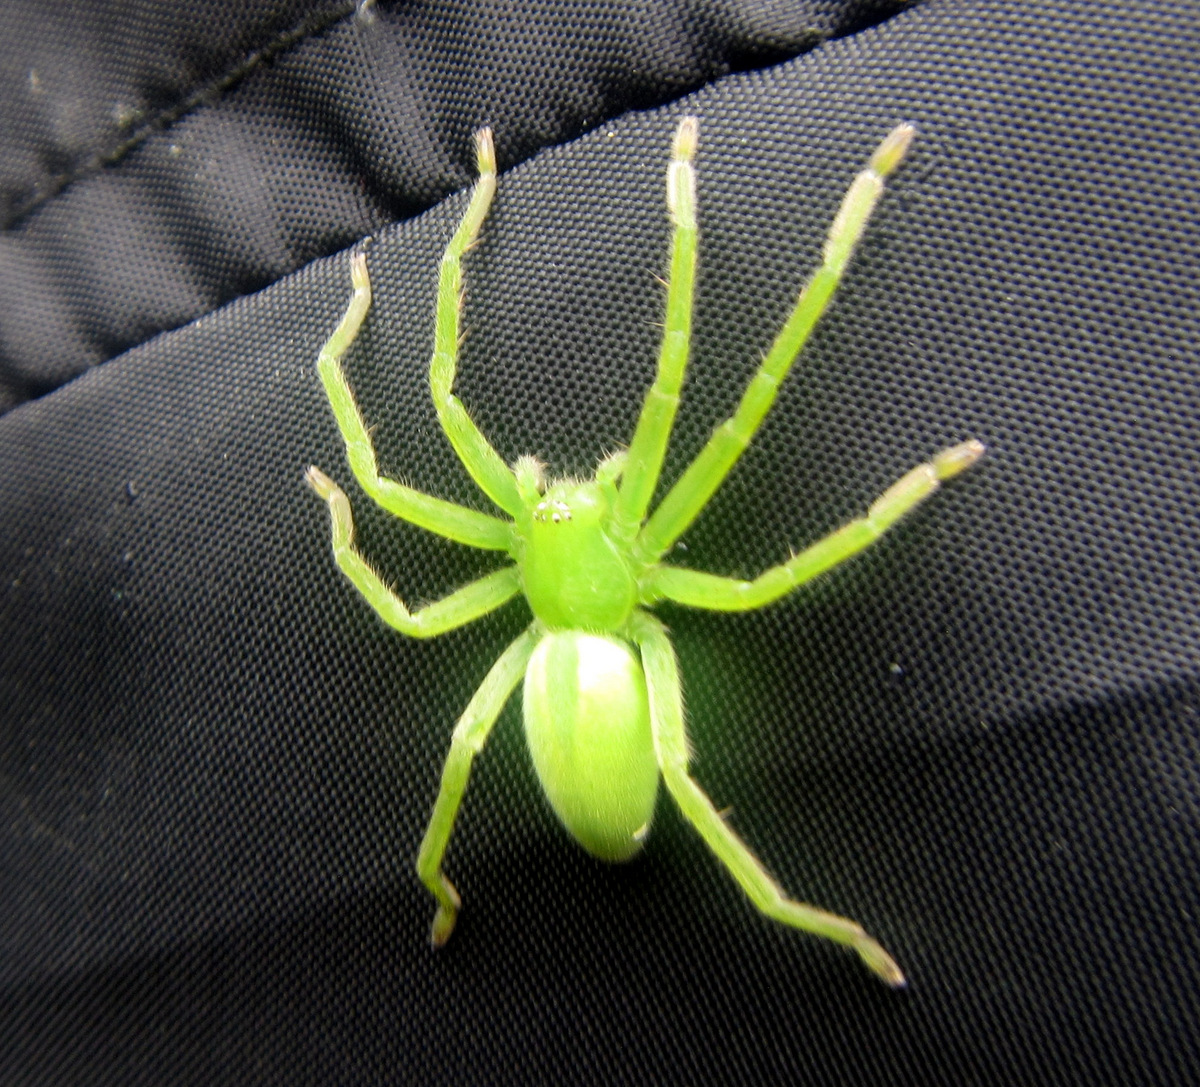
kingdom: Animalia
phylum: Arthropoda
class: Arachnida
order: Araneae
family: Sparassidae
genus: Micrommata
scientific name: Micrommata virescens
